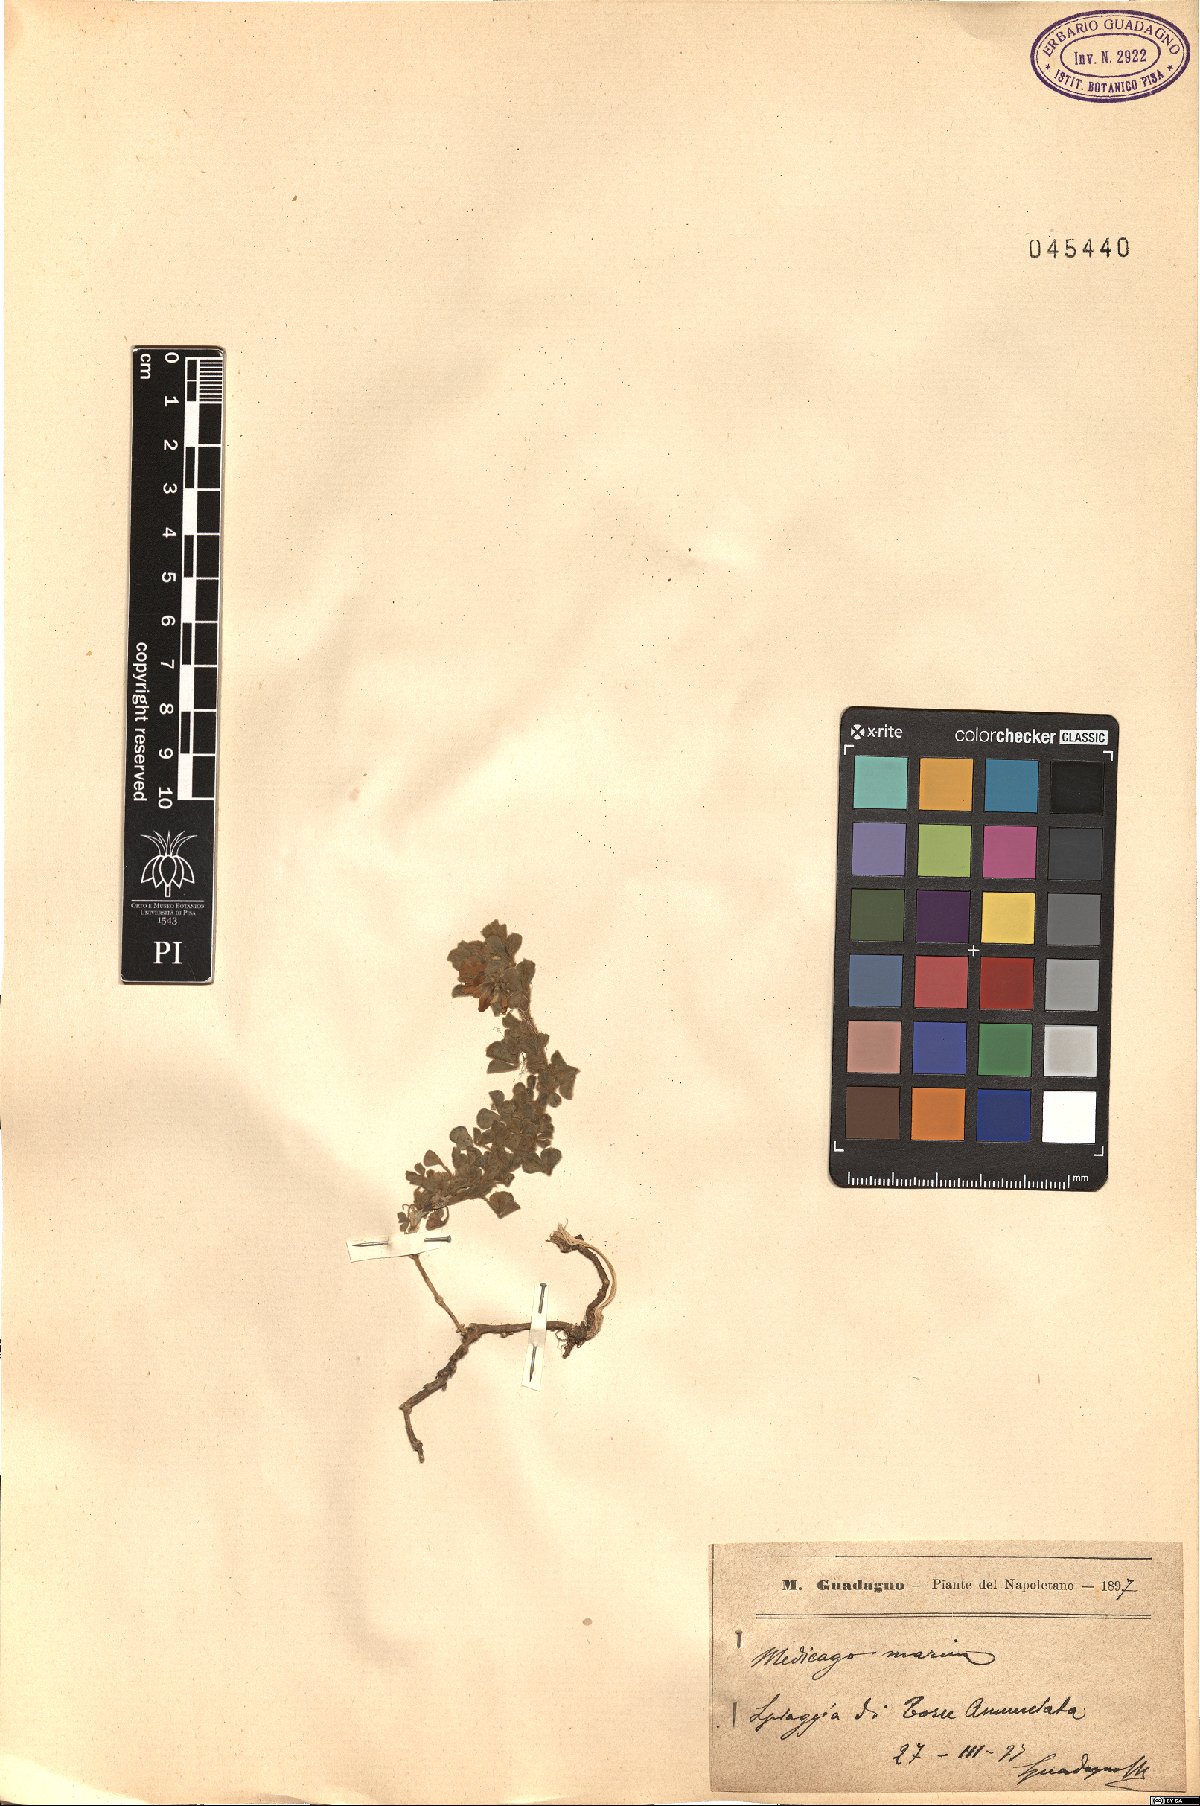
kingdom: Plantae
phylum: Tracheophyta
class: Magnoliopsida
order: Fabales
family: Fabaceae
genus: Medicago
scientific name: Medicago marina
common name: Sea medick
